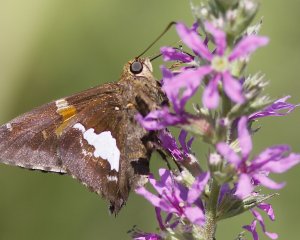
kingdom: Animalia
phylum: Arthropoda
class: Insecta
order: Lepidoptera
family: Hesperiidae
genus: Epargyreus
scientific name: Epargyreus clarus
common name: Silver-spotted Skipper
